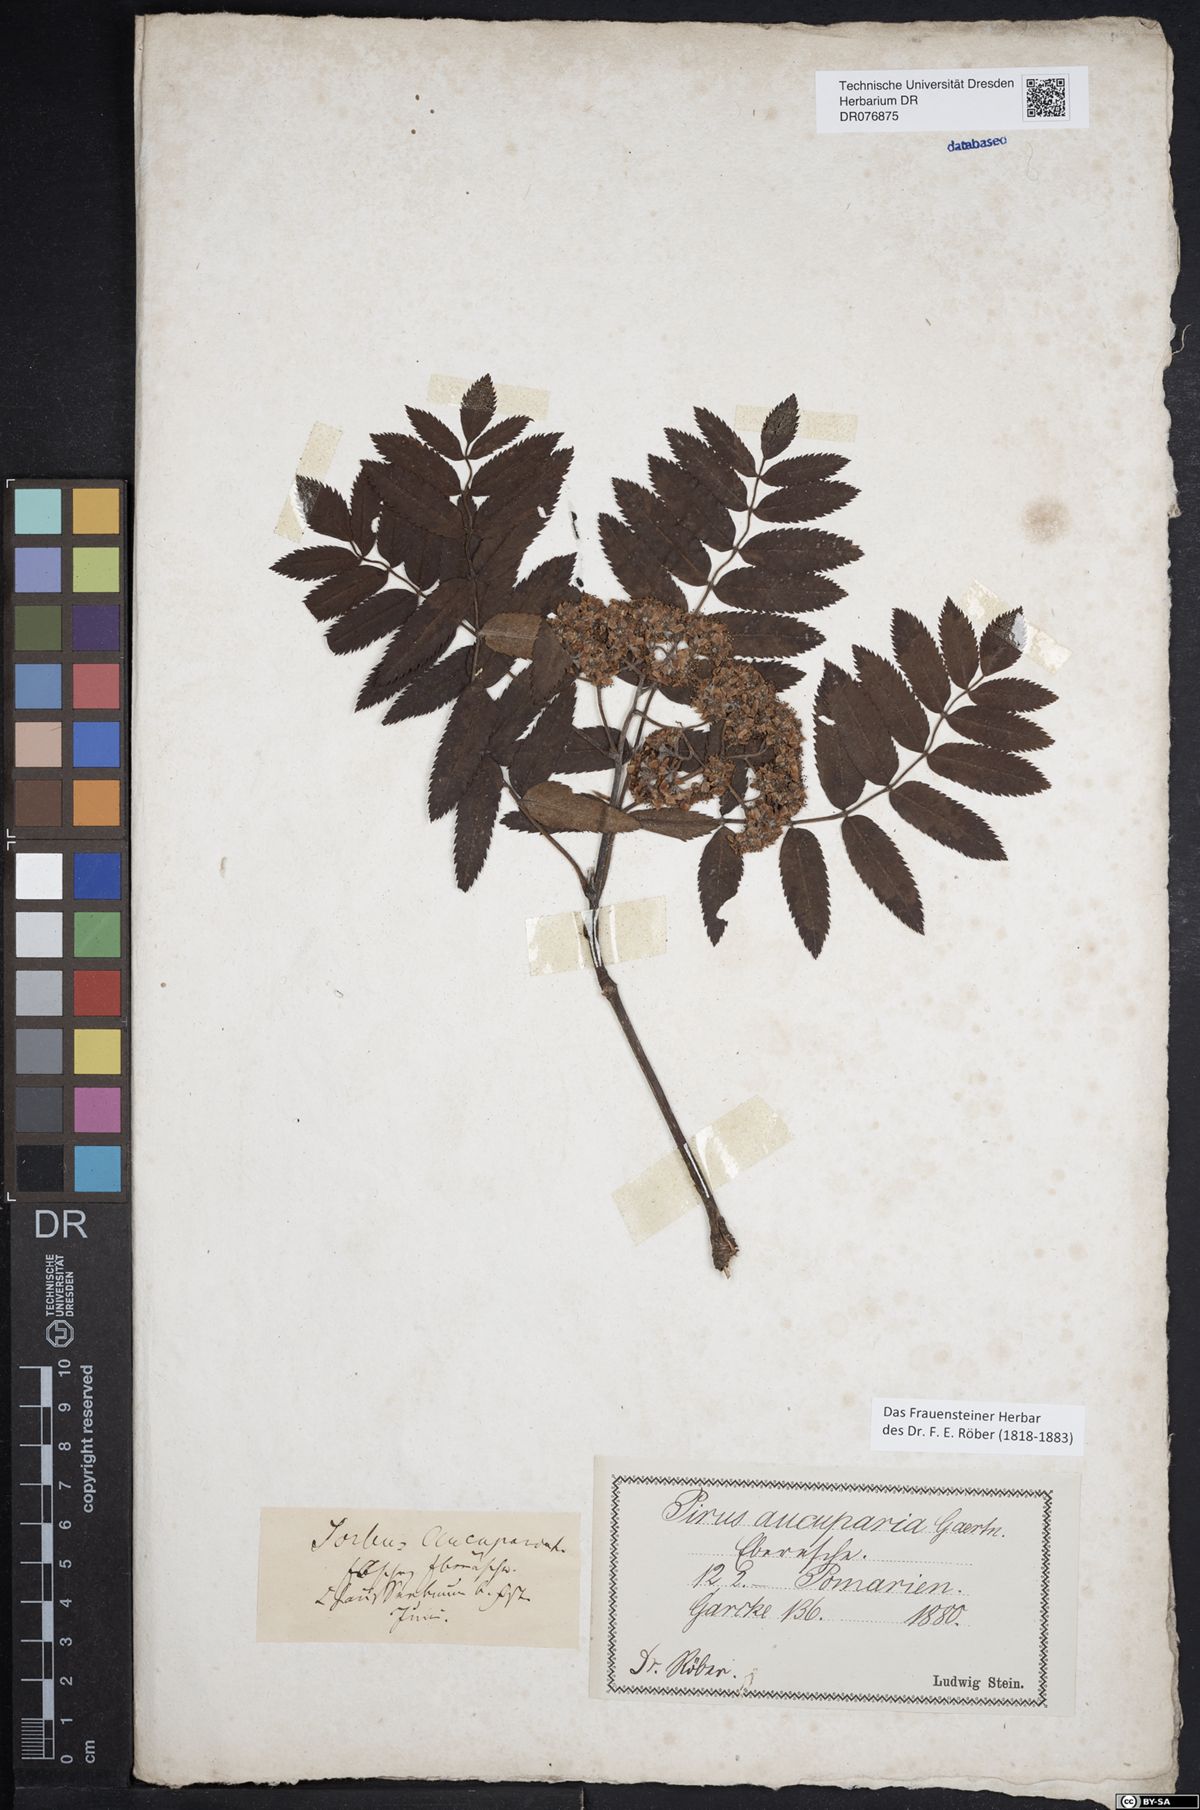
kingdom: Plantae
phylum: Tracheophyta
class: Magnoliopsida
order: Rosales
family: Rosaceae
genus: Sorbus
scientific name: Sorbus aucuparia
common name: Rowan
